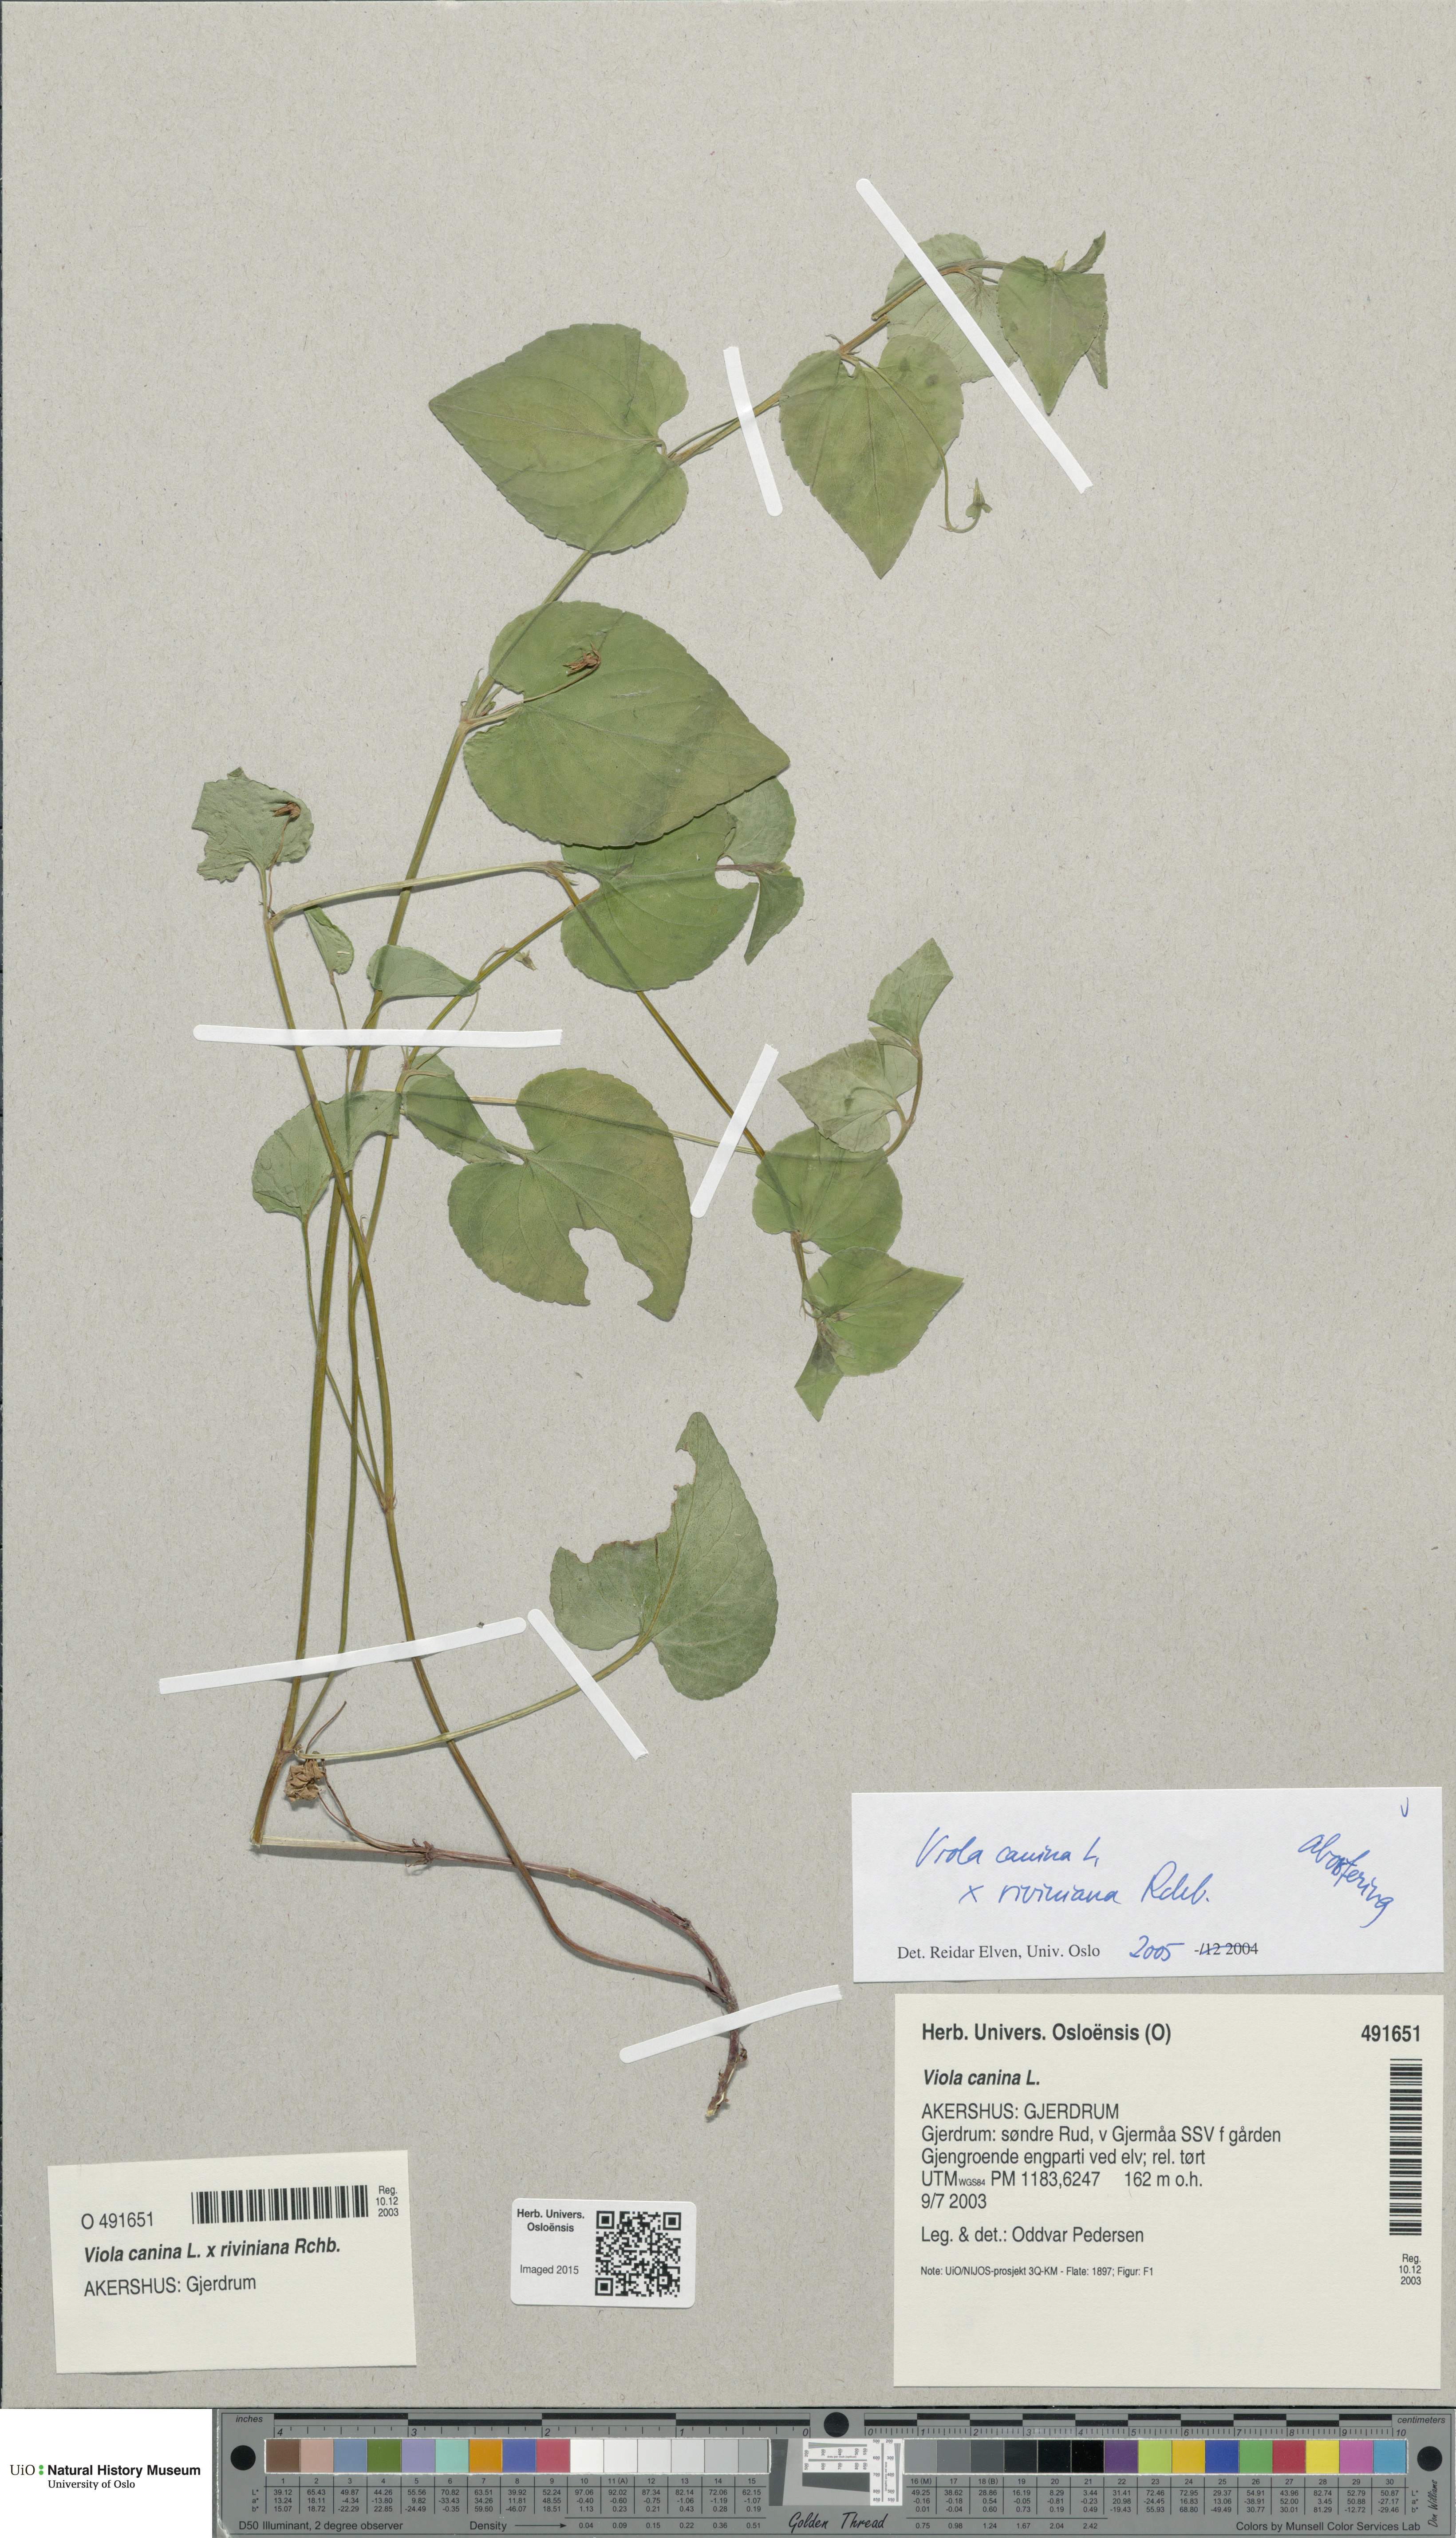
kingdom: Plantae
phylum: Tracheophyta
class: Magnoliopsida
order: Malpighiales
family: Violaceae
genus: Viola
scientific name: Viola
